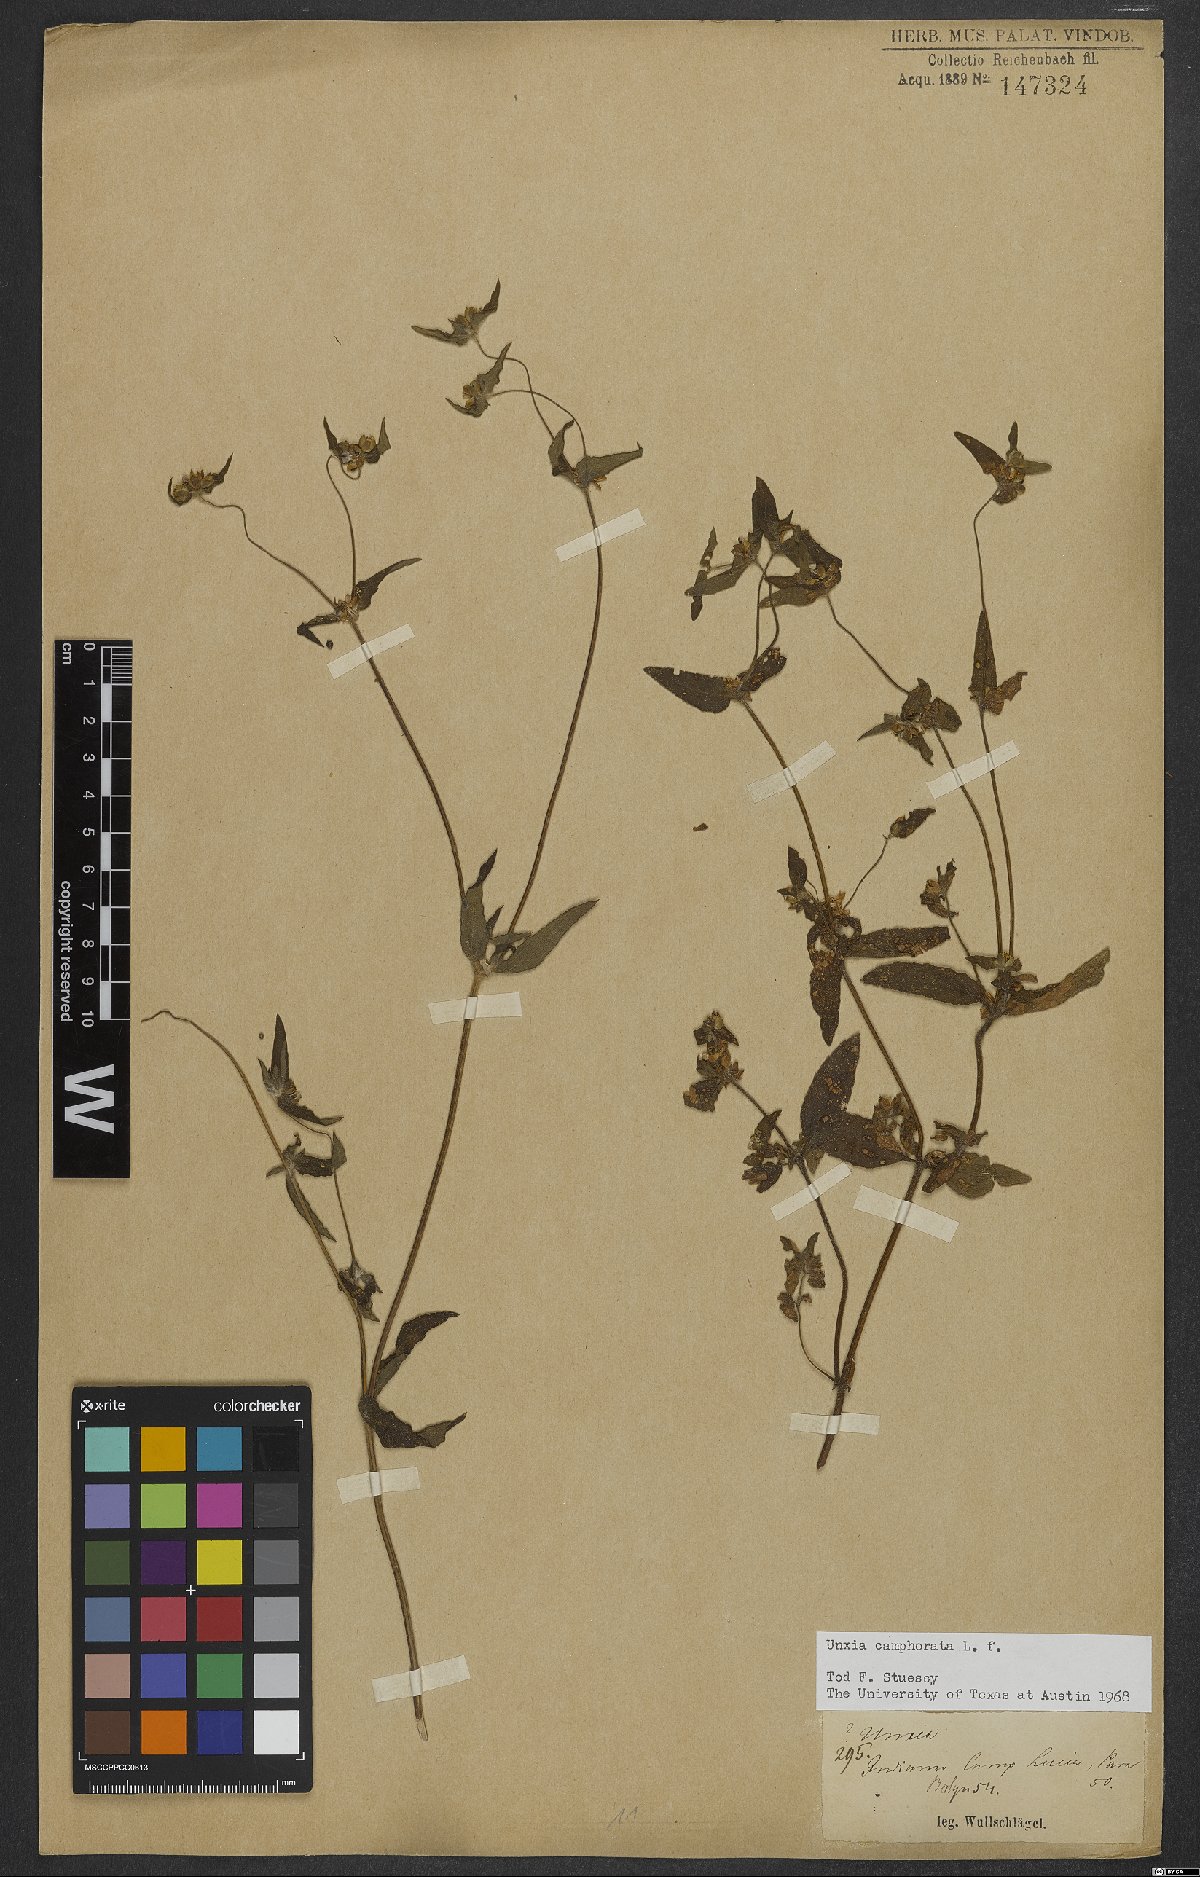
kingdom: Plantae
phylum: Tracheophyta
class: Magnoliopsida
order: Asterales
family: Asteraceae
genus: Unxia
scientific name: Unxia camphorata
